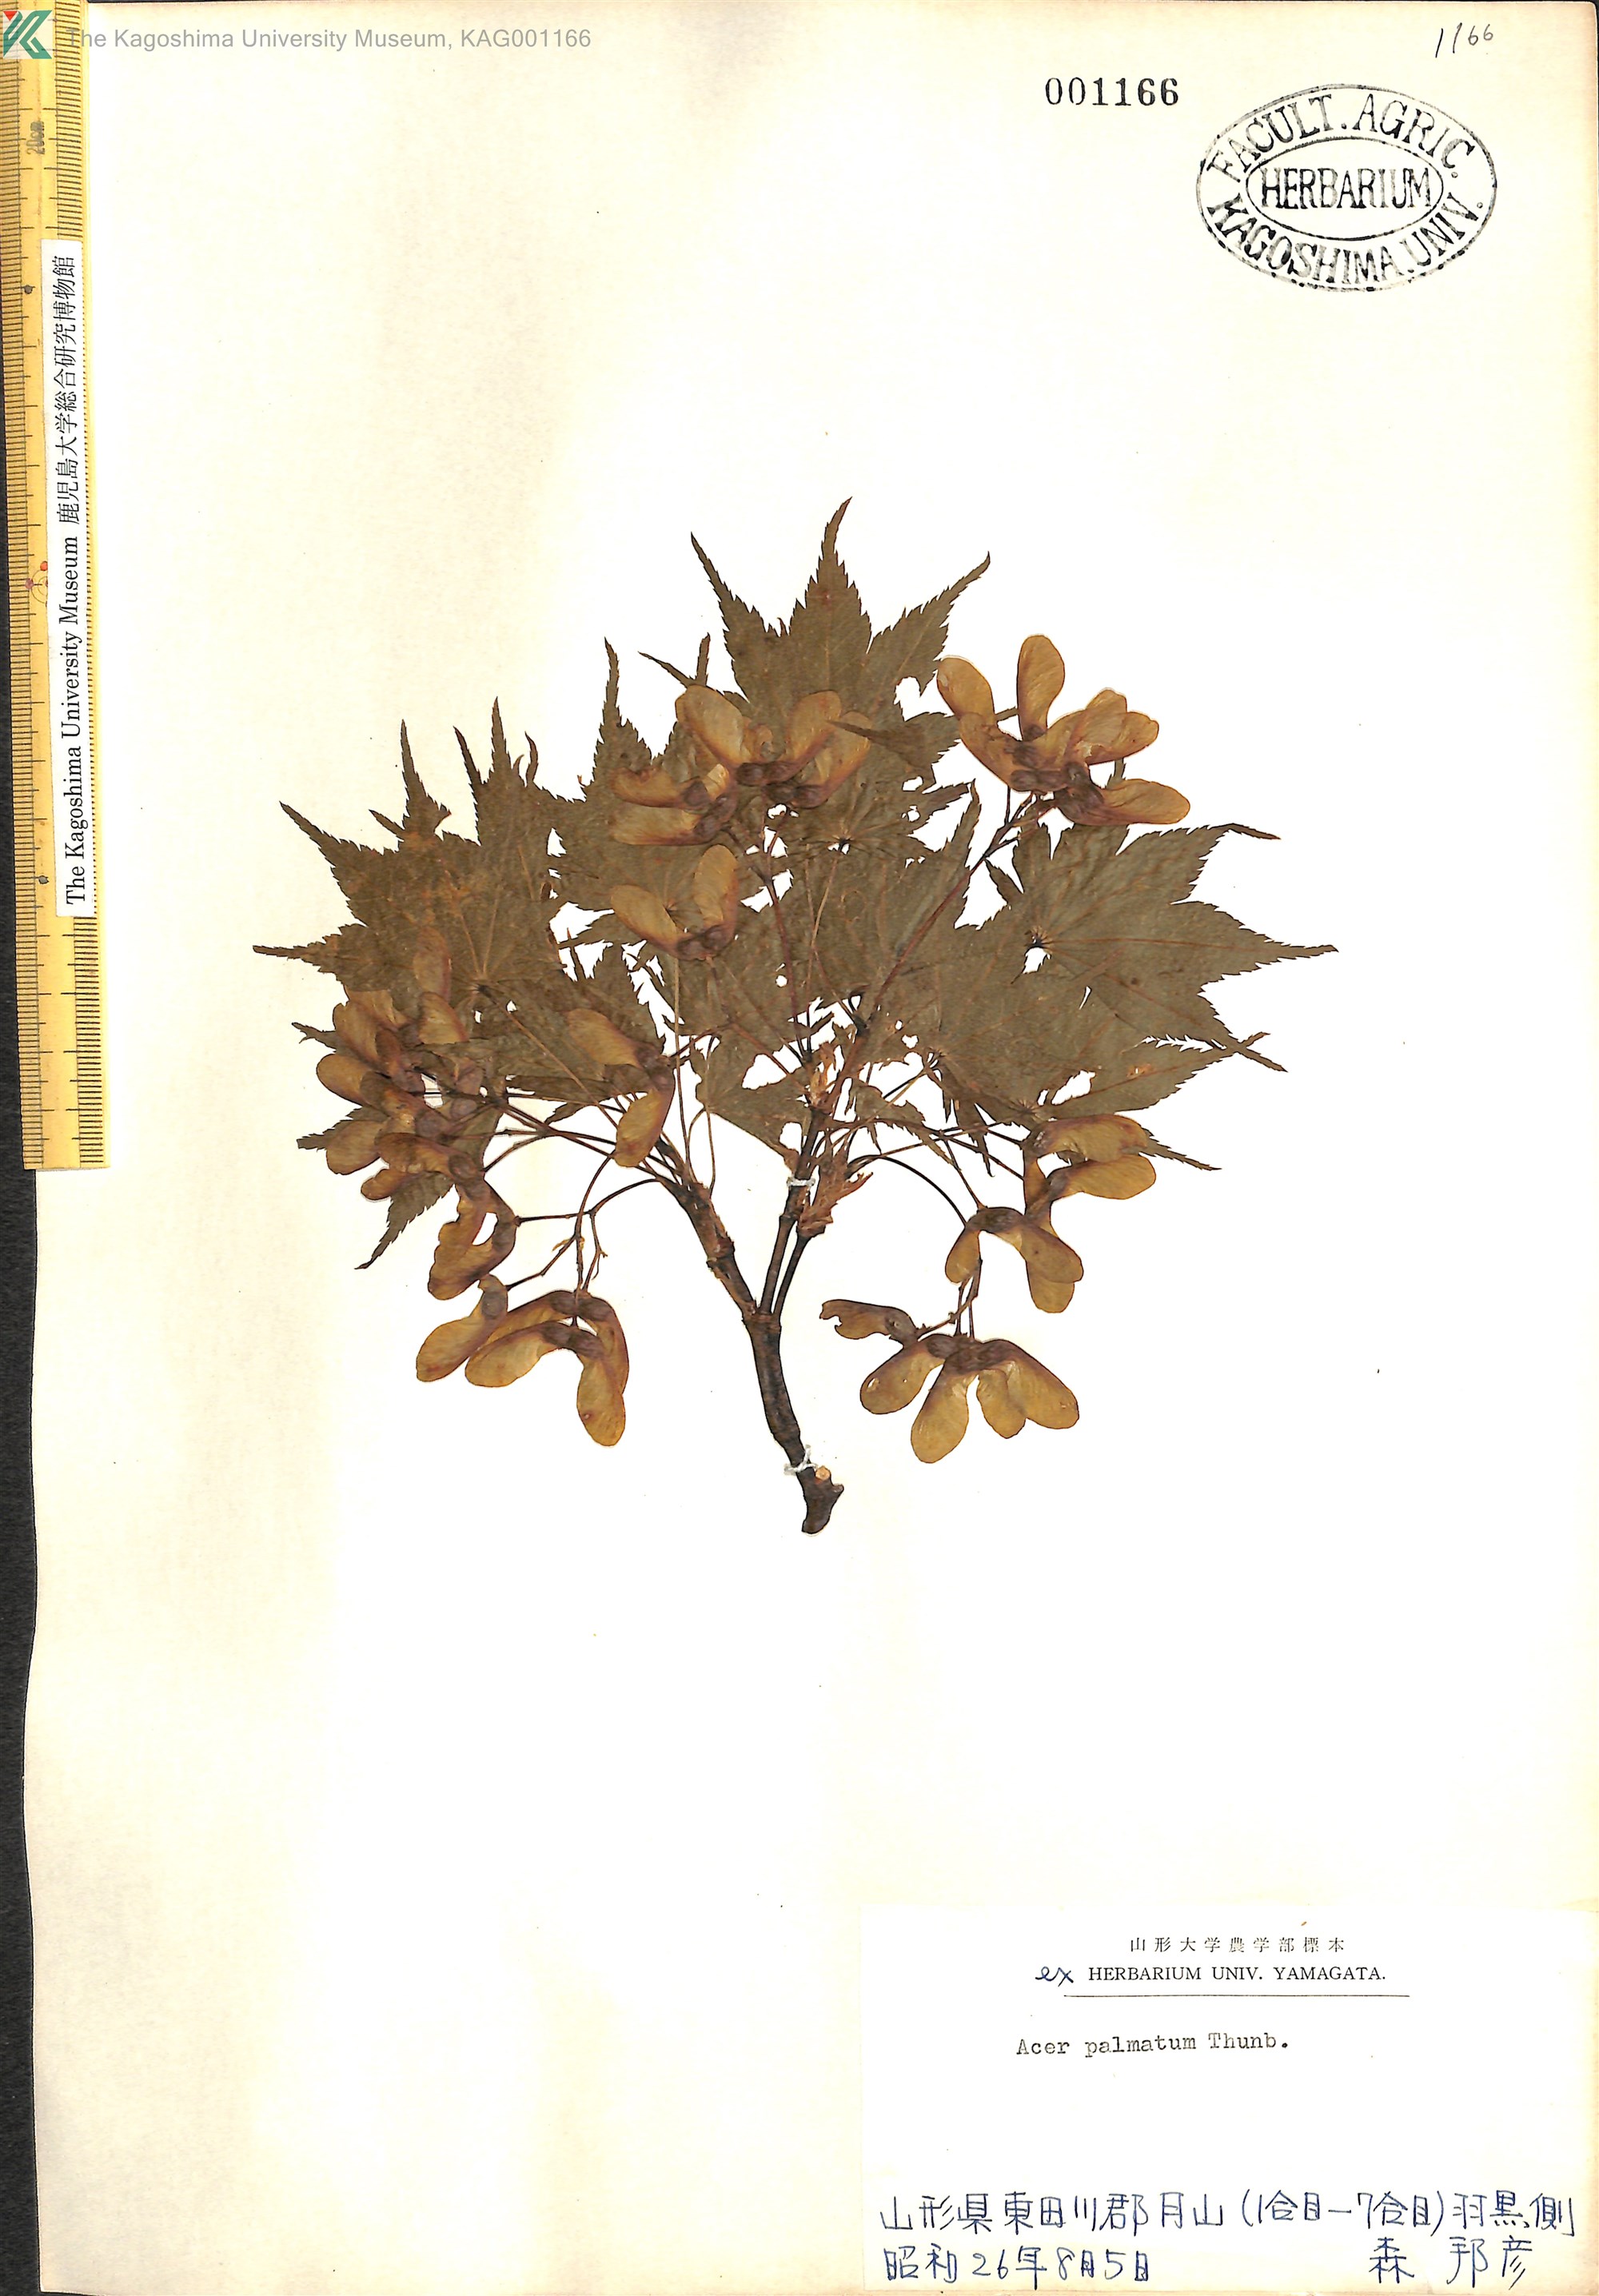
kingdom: Plantae
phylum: Tracheophyta
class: Magnoliopsida
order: Sapindales
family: Sapindaceae
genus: Acer
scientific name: Acer palmatum
